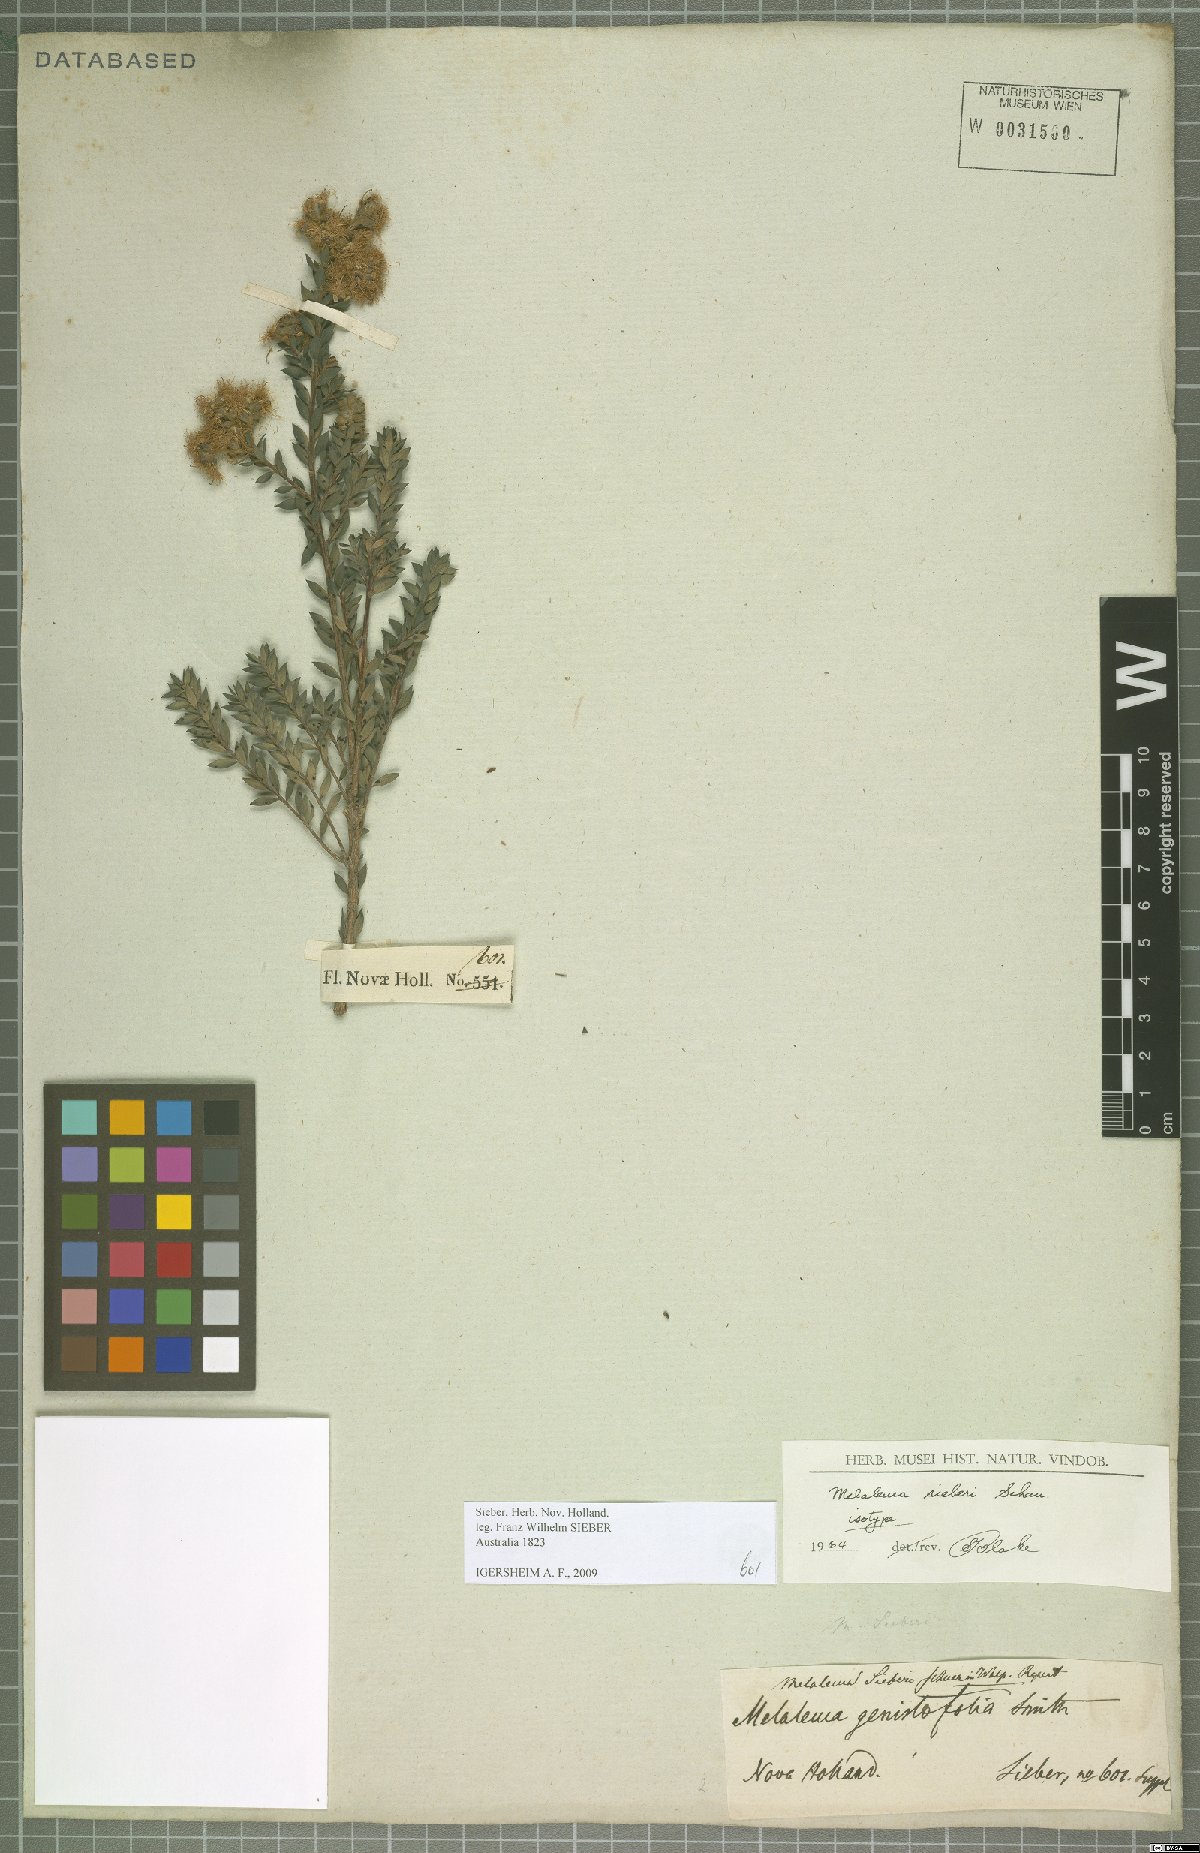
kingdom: Plantae
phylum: Tracheophyta
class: Magnoliopsida
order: Myrtales
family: Myrtaceae
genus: Melaleuca
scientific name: Melaleuca sieberi
